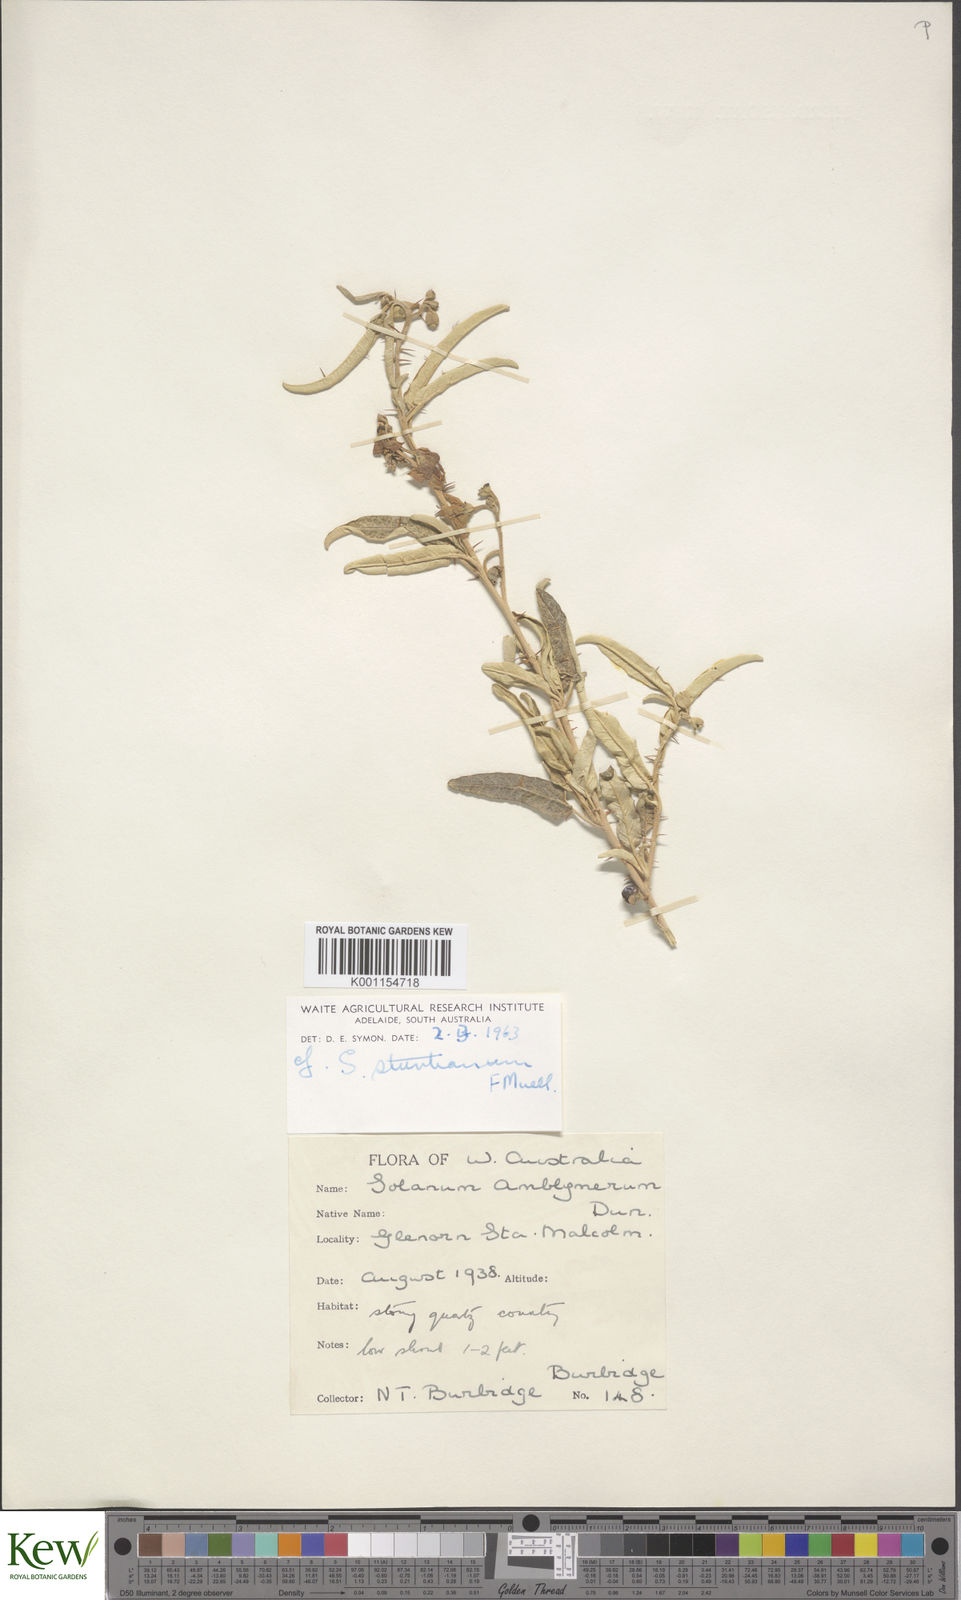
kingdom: Plantae
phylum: Tracheophyta
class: Magnoliopsida
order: Solanales
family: Solanaceae
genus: Solanum
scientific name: Solanum sturtianum
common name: Thargomindah nightshade
